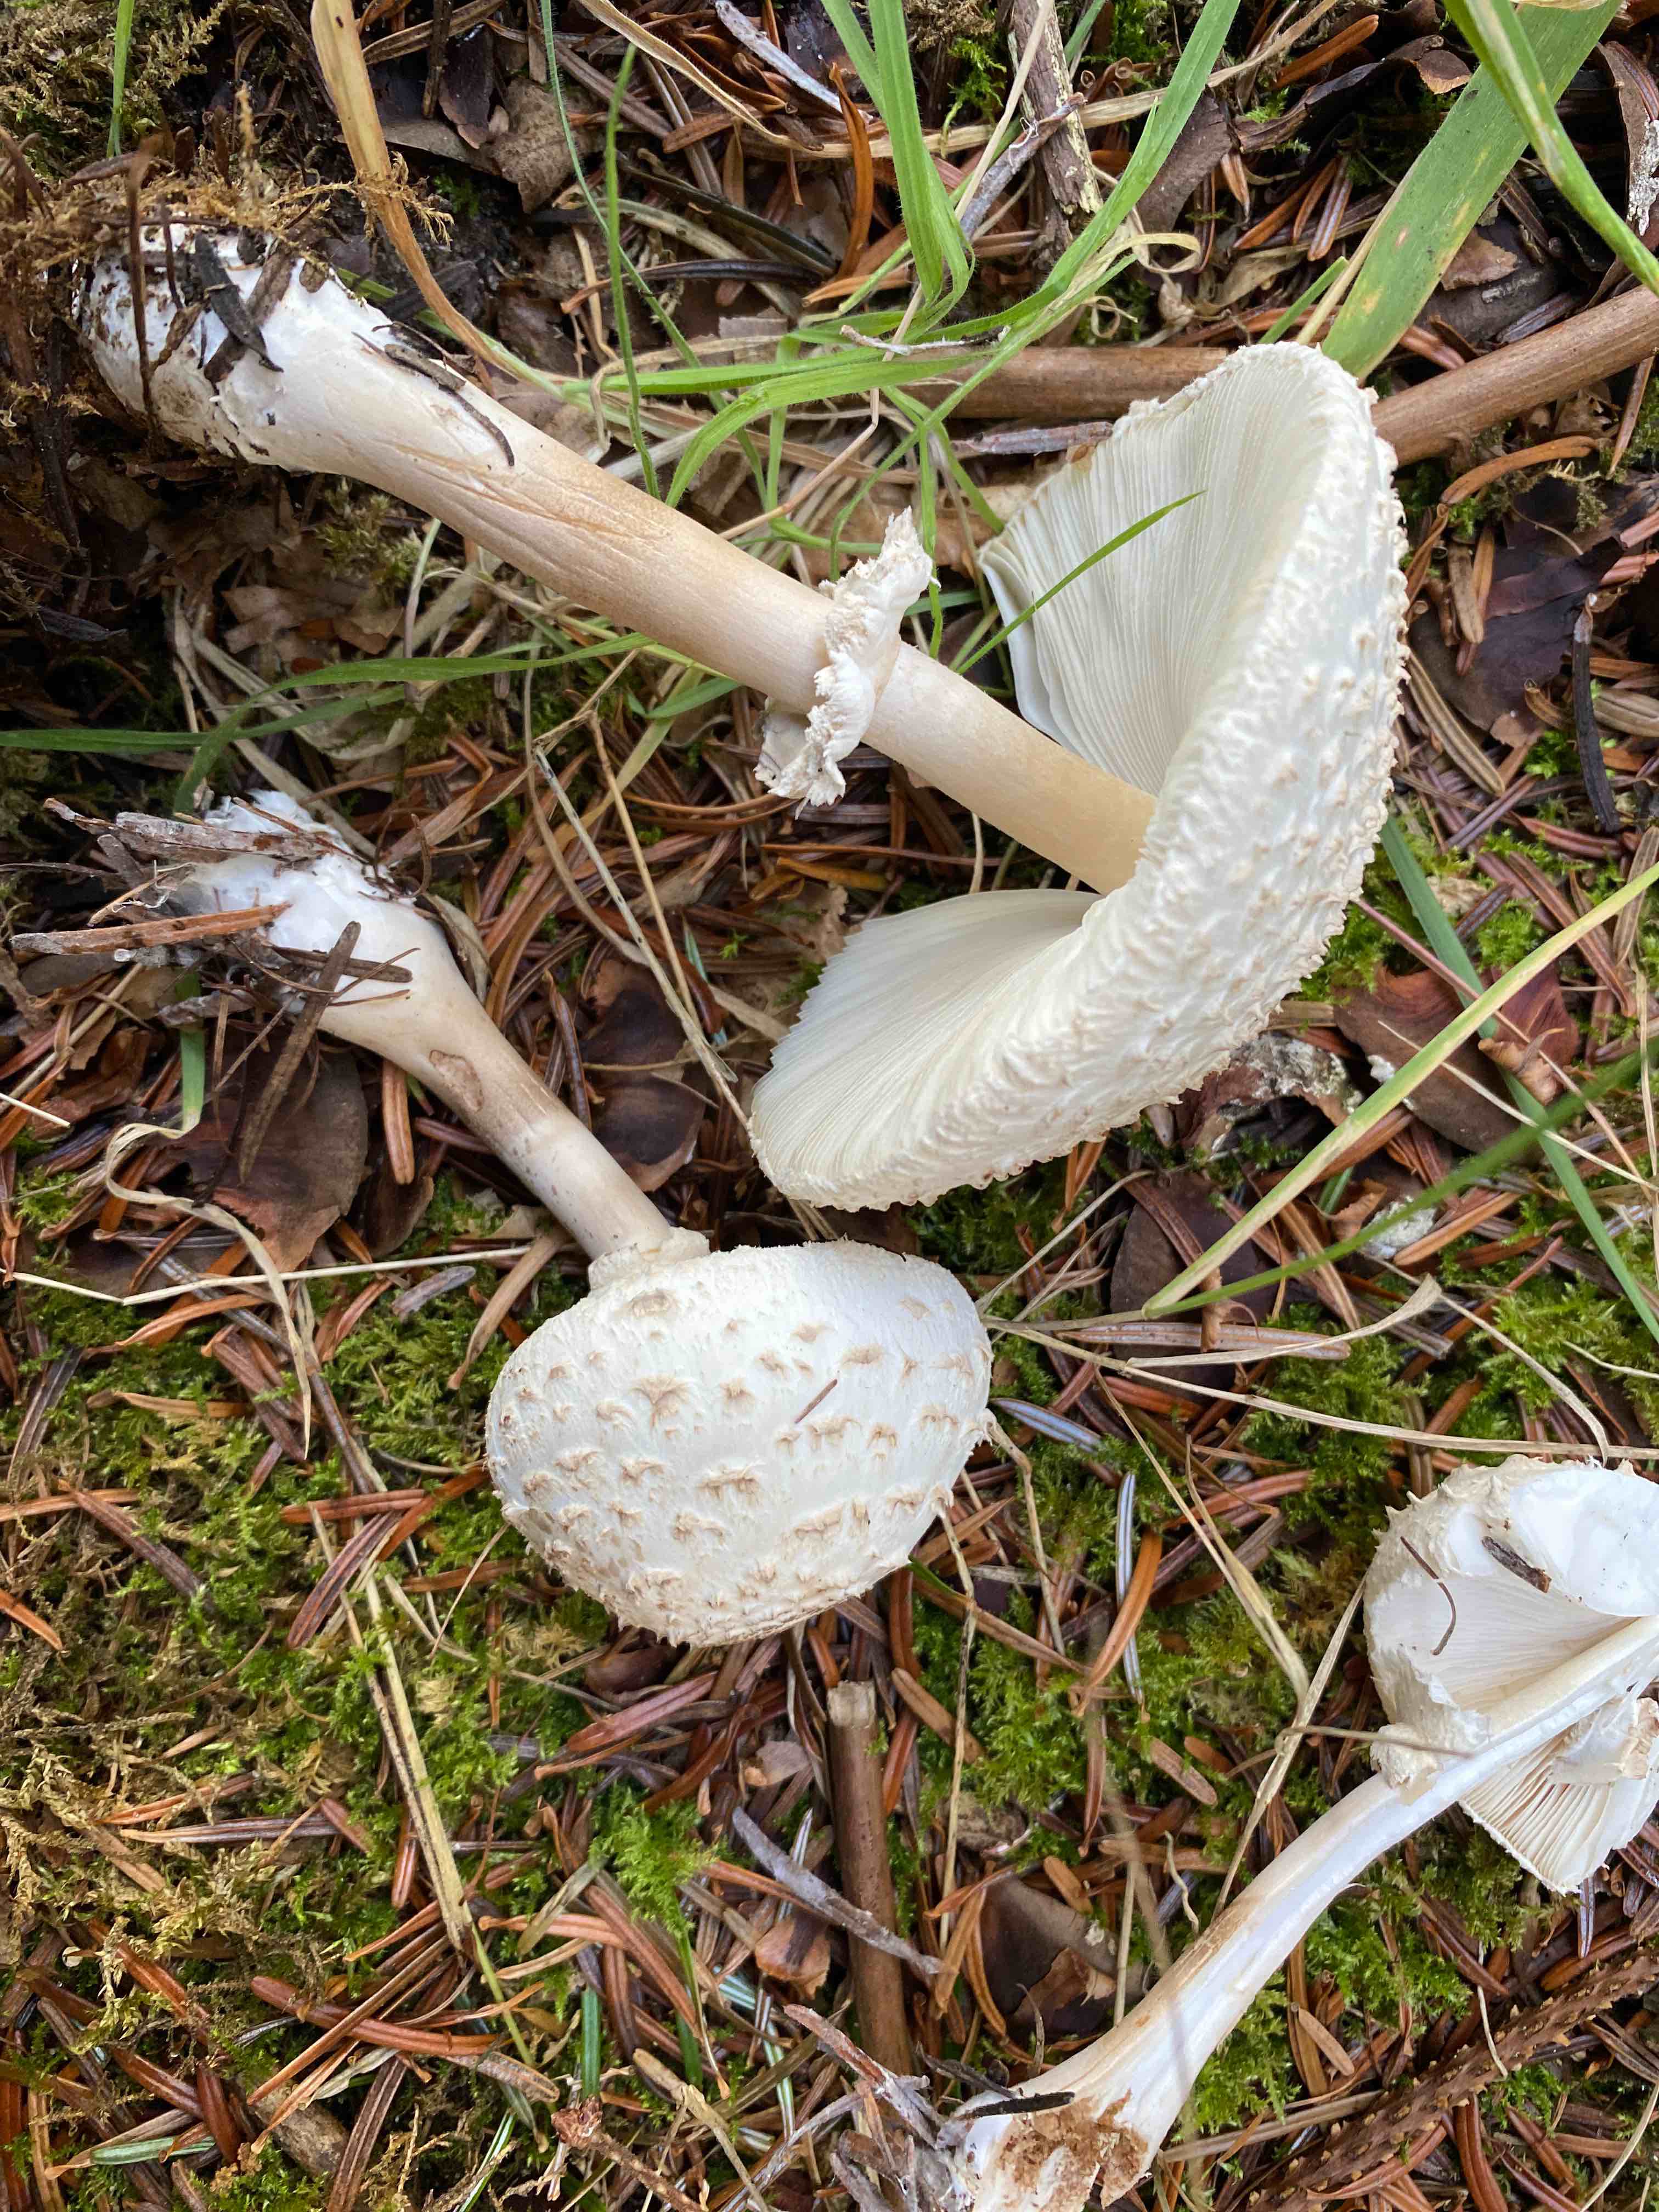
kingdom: Fungi
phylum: Basidiomycota
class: Agaricomycetes
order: Agaricales
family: Agaricaceae
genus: Leucoagaricus
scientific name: Leucoagaricus nympharum
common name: gran-silkehat
